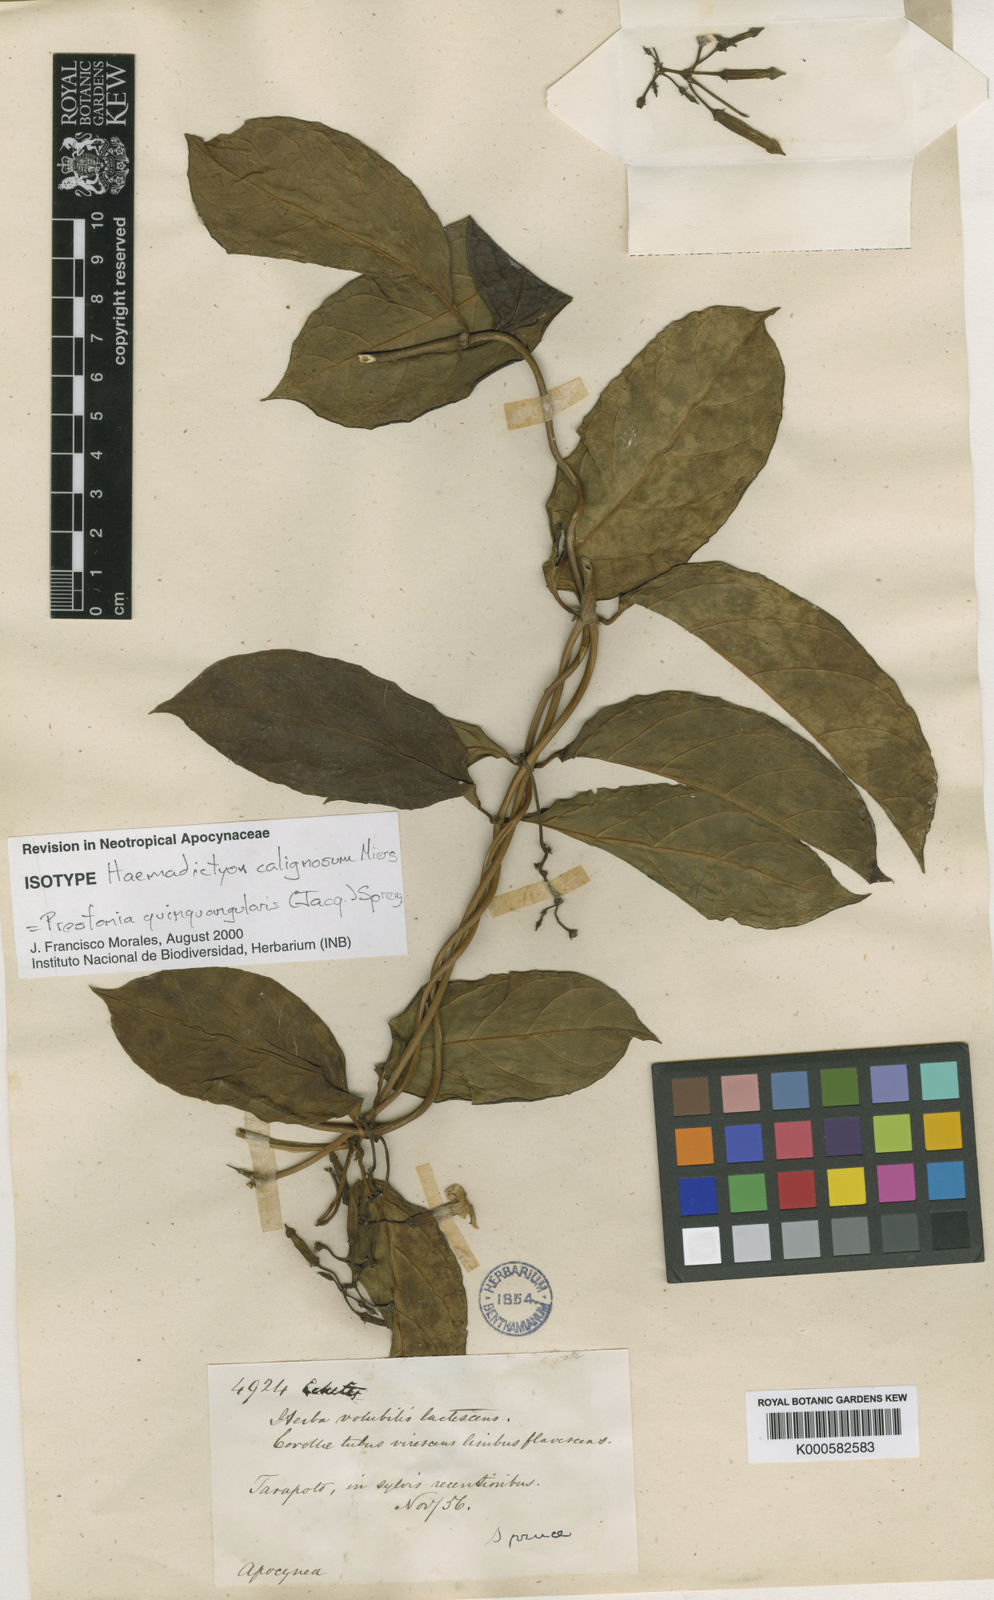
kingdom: Plantae
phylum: Tracheophyta
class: Magnoliopsida
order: Gentianales
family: Apocynaceae
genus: Prestonia
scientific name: Prestonia quinquangularis
